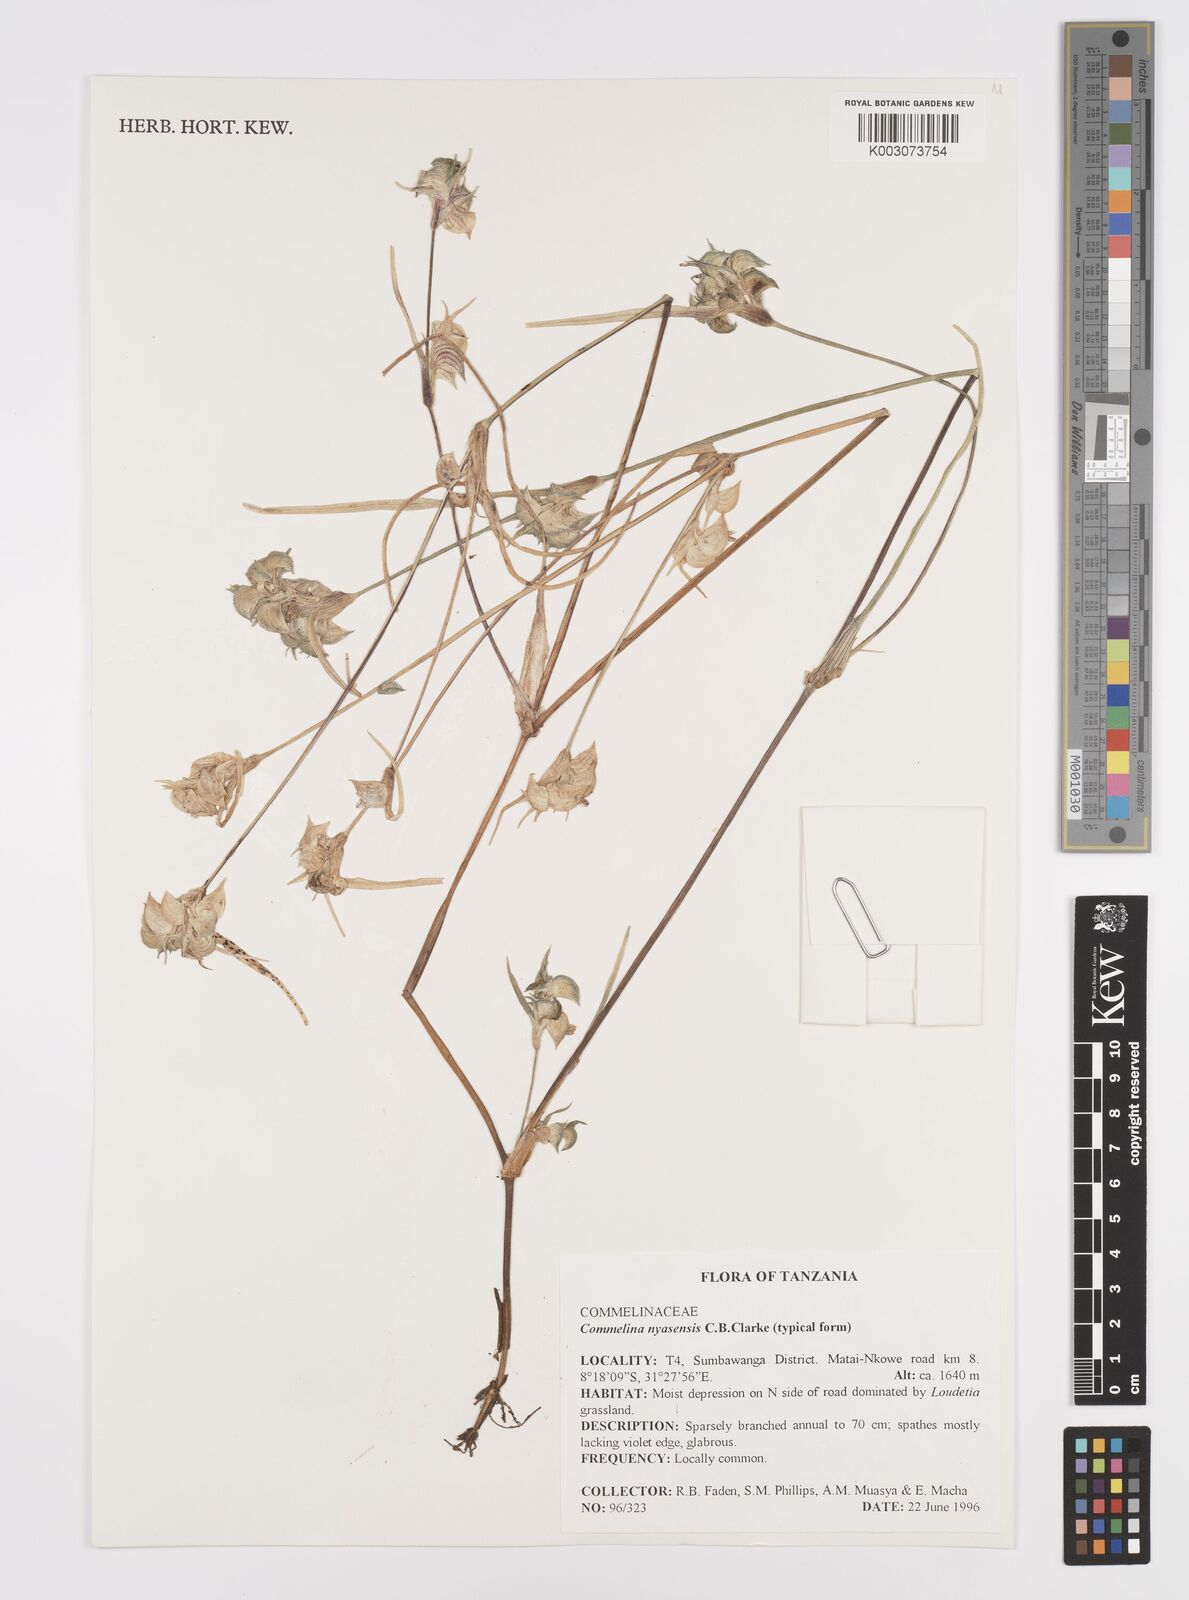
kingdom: Plantae
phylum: Tracheophyta
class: Liliopsida
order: Commelinales
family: Commelinaceae
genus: Commelina
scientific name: Commelina nyasensis
